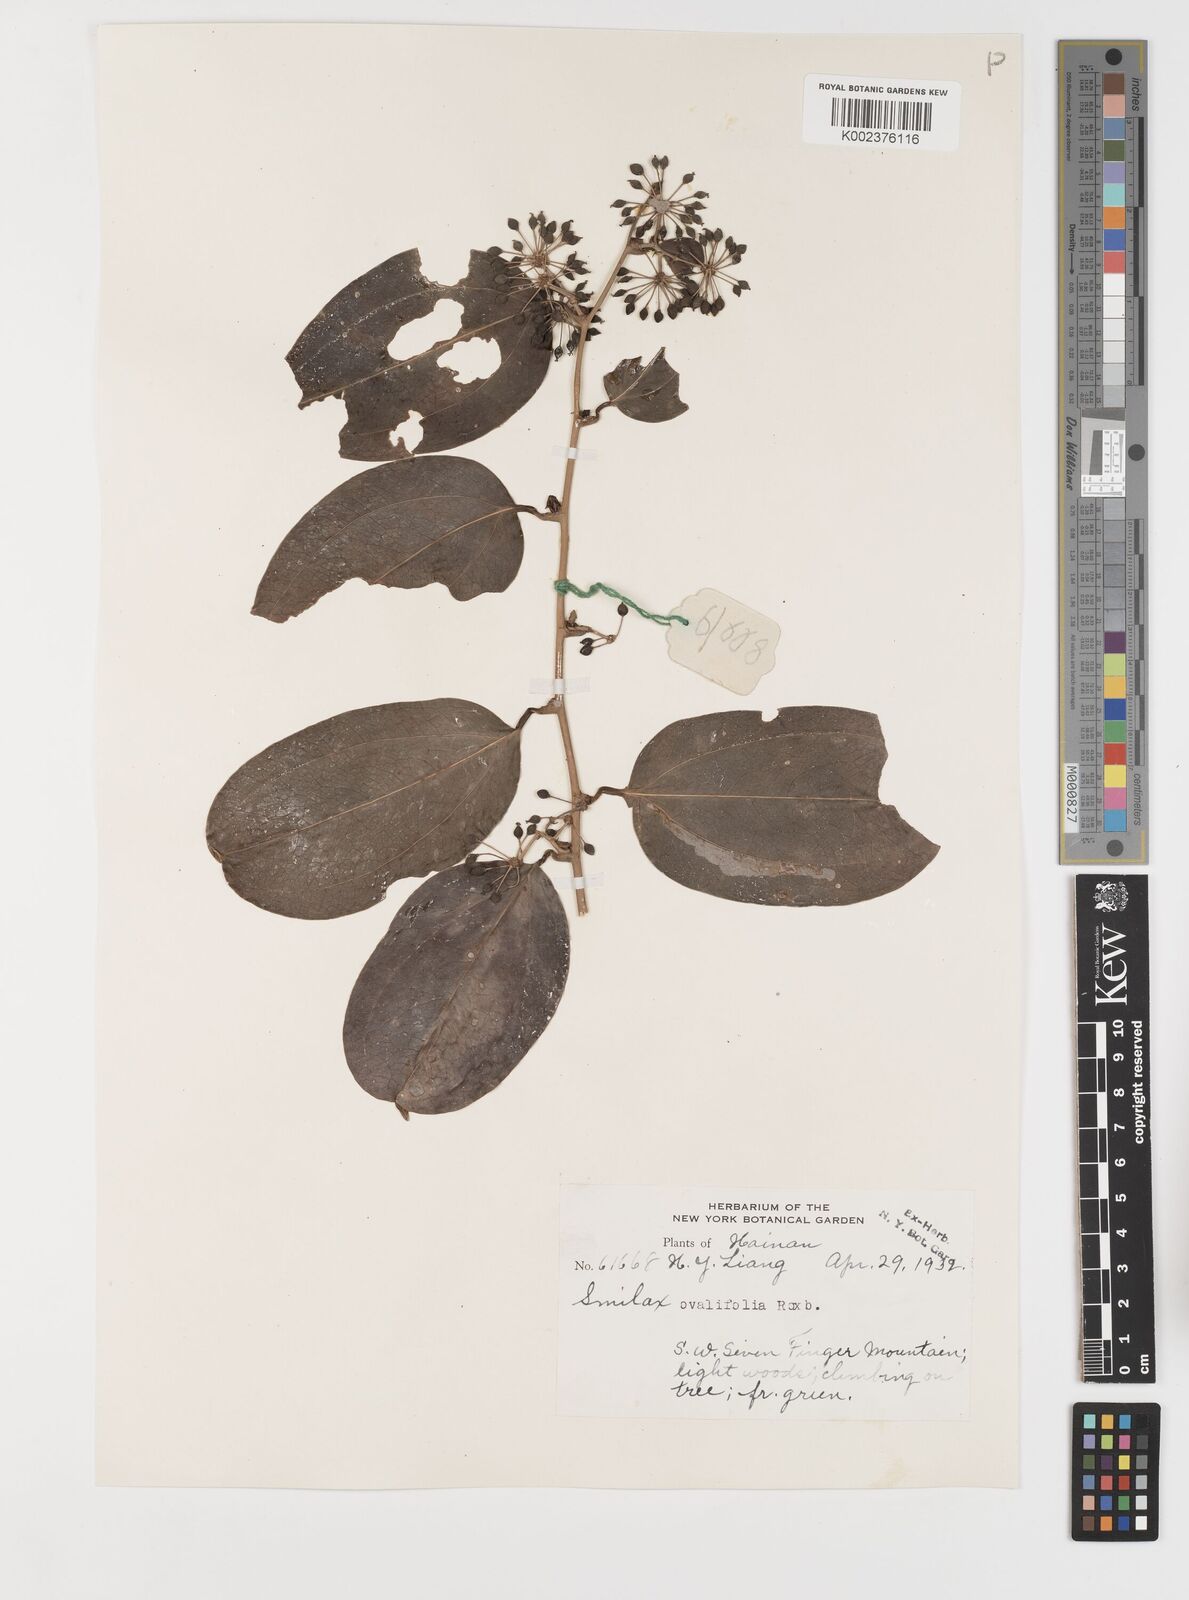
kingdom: Plantae
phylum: Tracheophyta
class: Liliopsida
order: Liliales
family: Smilacaceae
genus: Smilax
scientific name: Smilax ovalifolia
